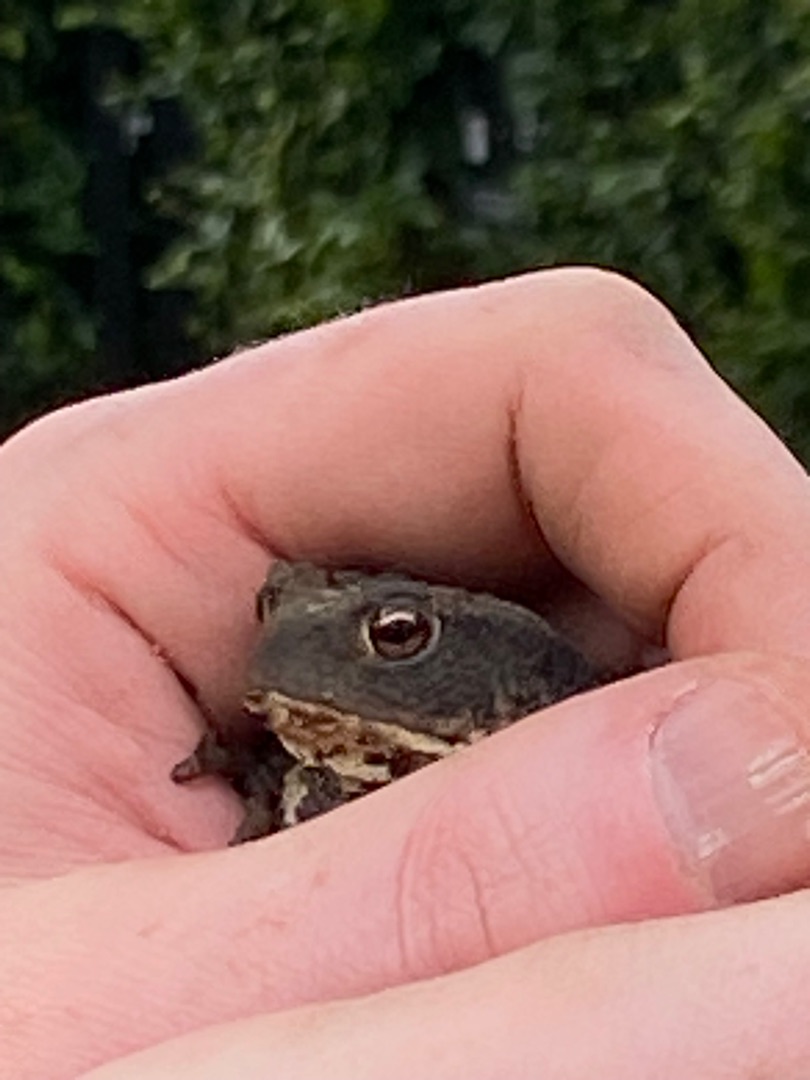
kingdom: Animalia
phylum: Chordata
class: Amphibia
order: Anura
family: Bufonidae
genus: Bufo
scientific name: Bufo bufo
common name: Skrubtudse
